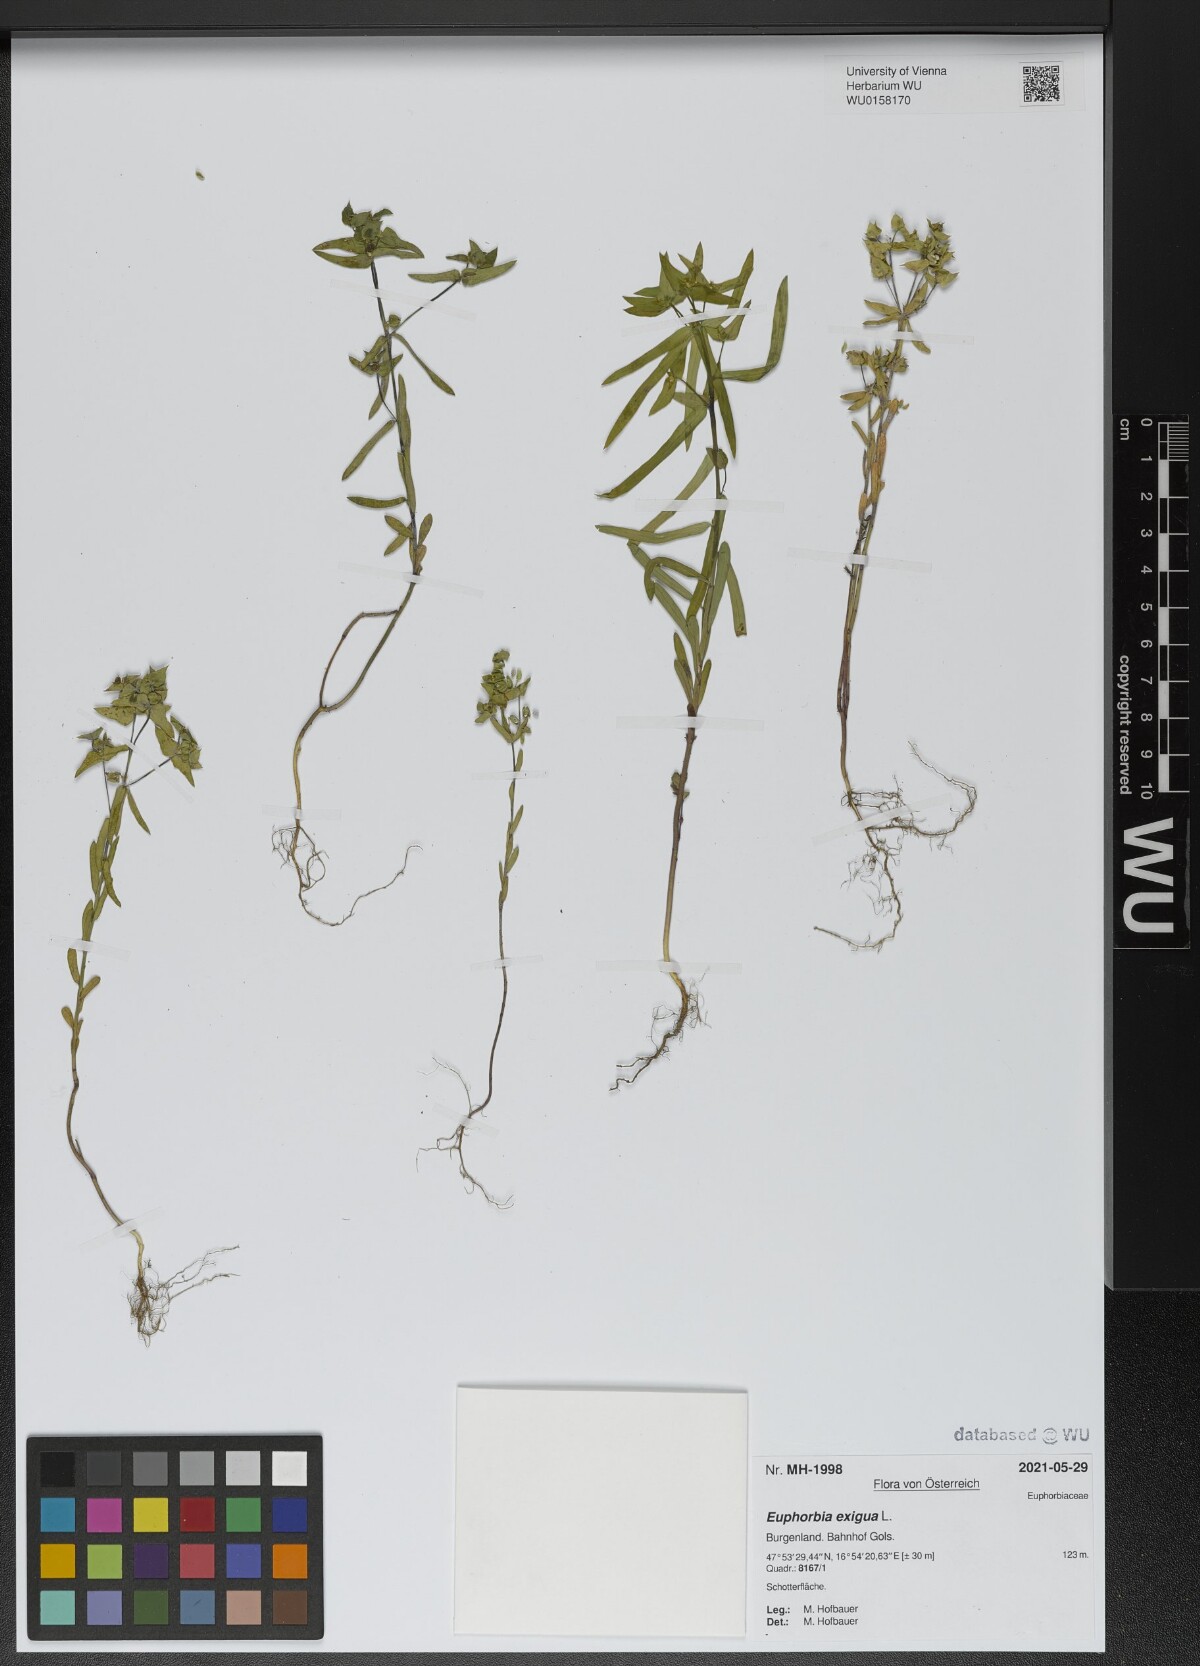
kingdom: Plantae
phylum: Tracheophyta
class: Magnoliopsida
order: Malpighiales
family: Euphorbiaceae
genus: Euphorbia
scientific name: Euphorbia exigua
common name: Dwarf spurge
